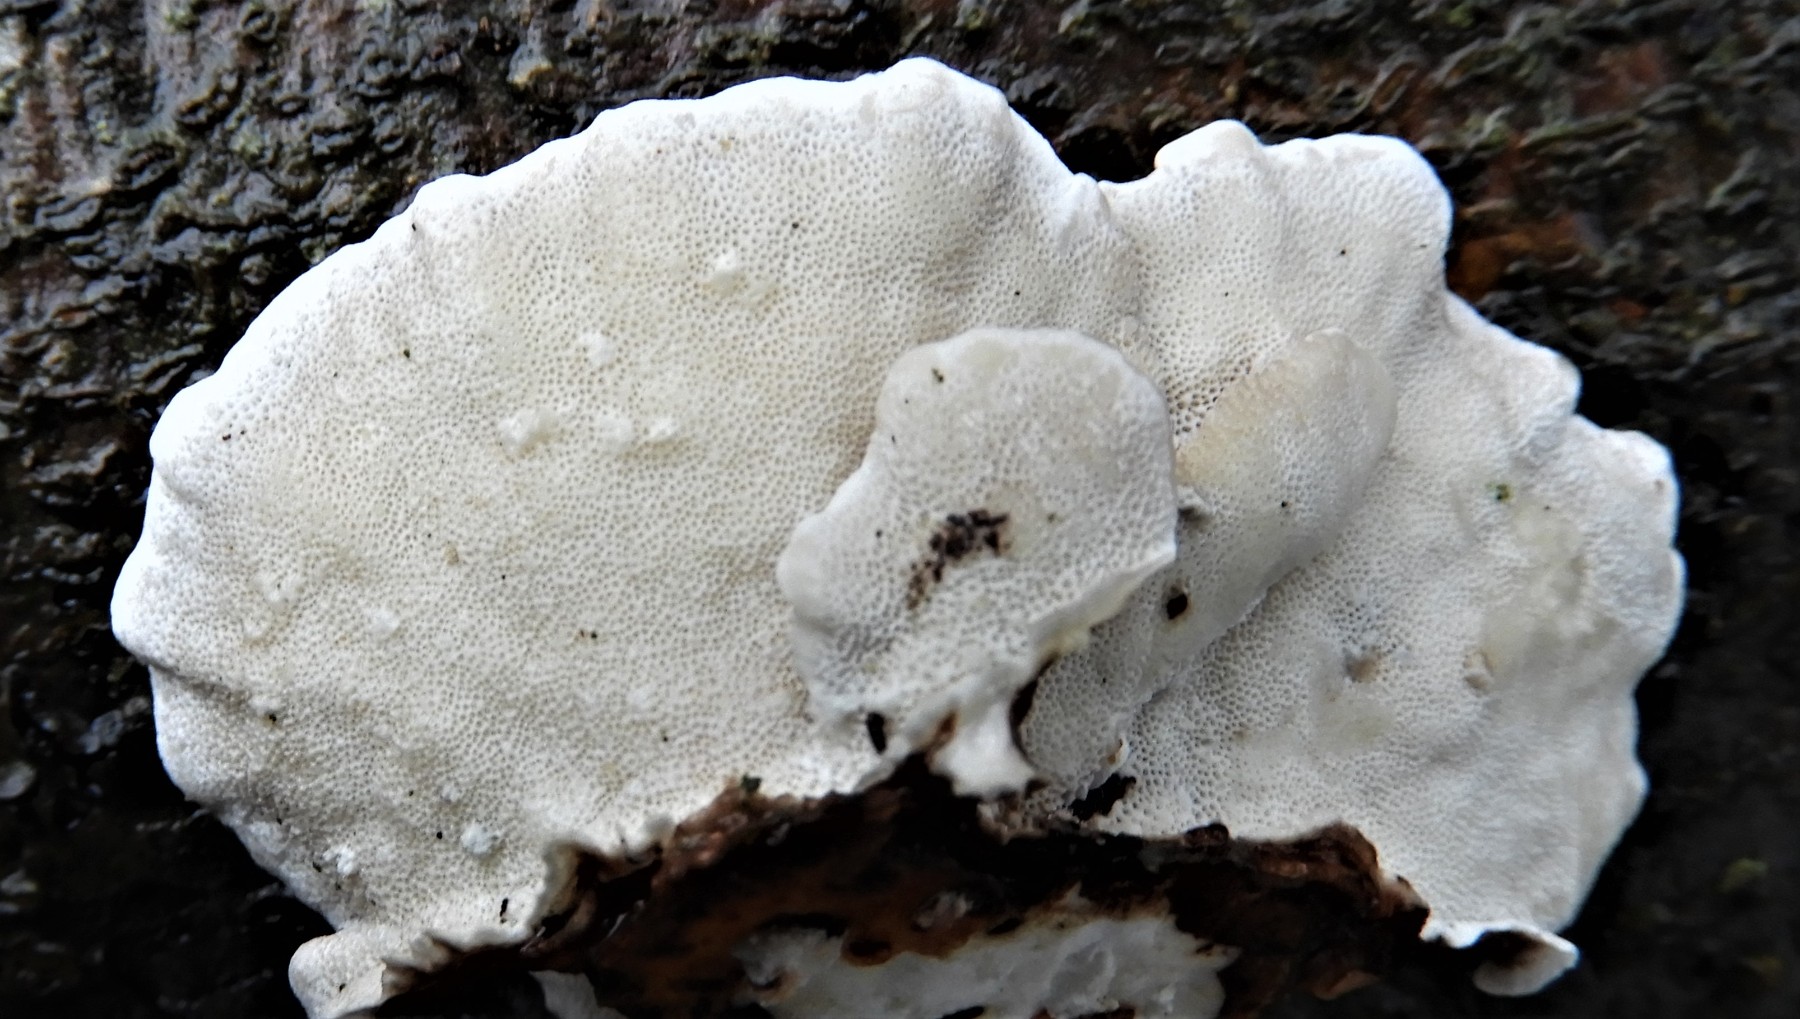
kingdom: Fungi
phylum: Basidiomycota
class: Agaricomycetes
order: Polyporales
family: Polyporaceae
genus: Trametes
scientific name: Trametes versicolor
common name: broget læderporesvamp
